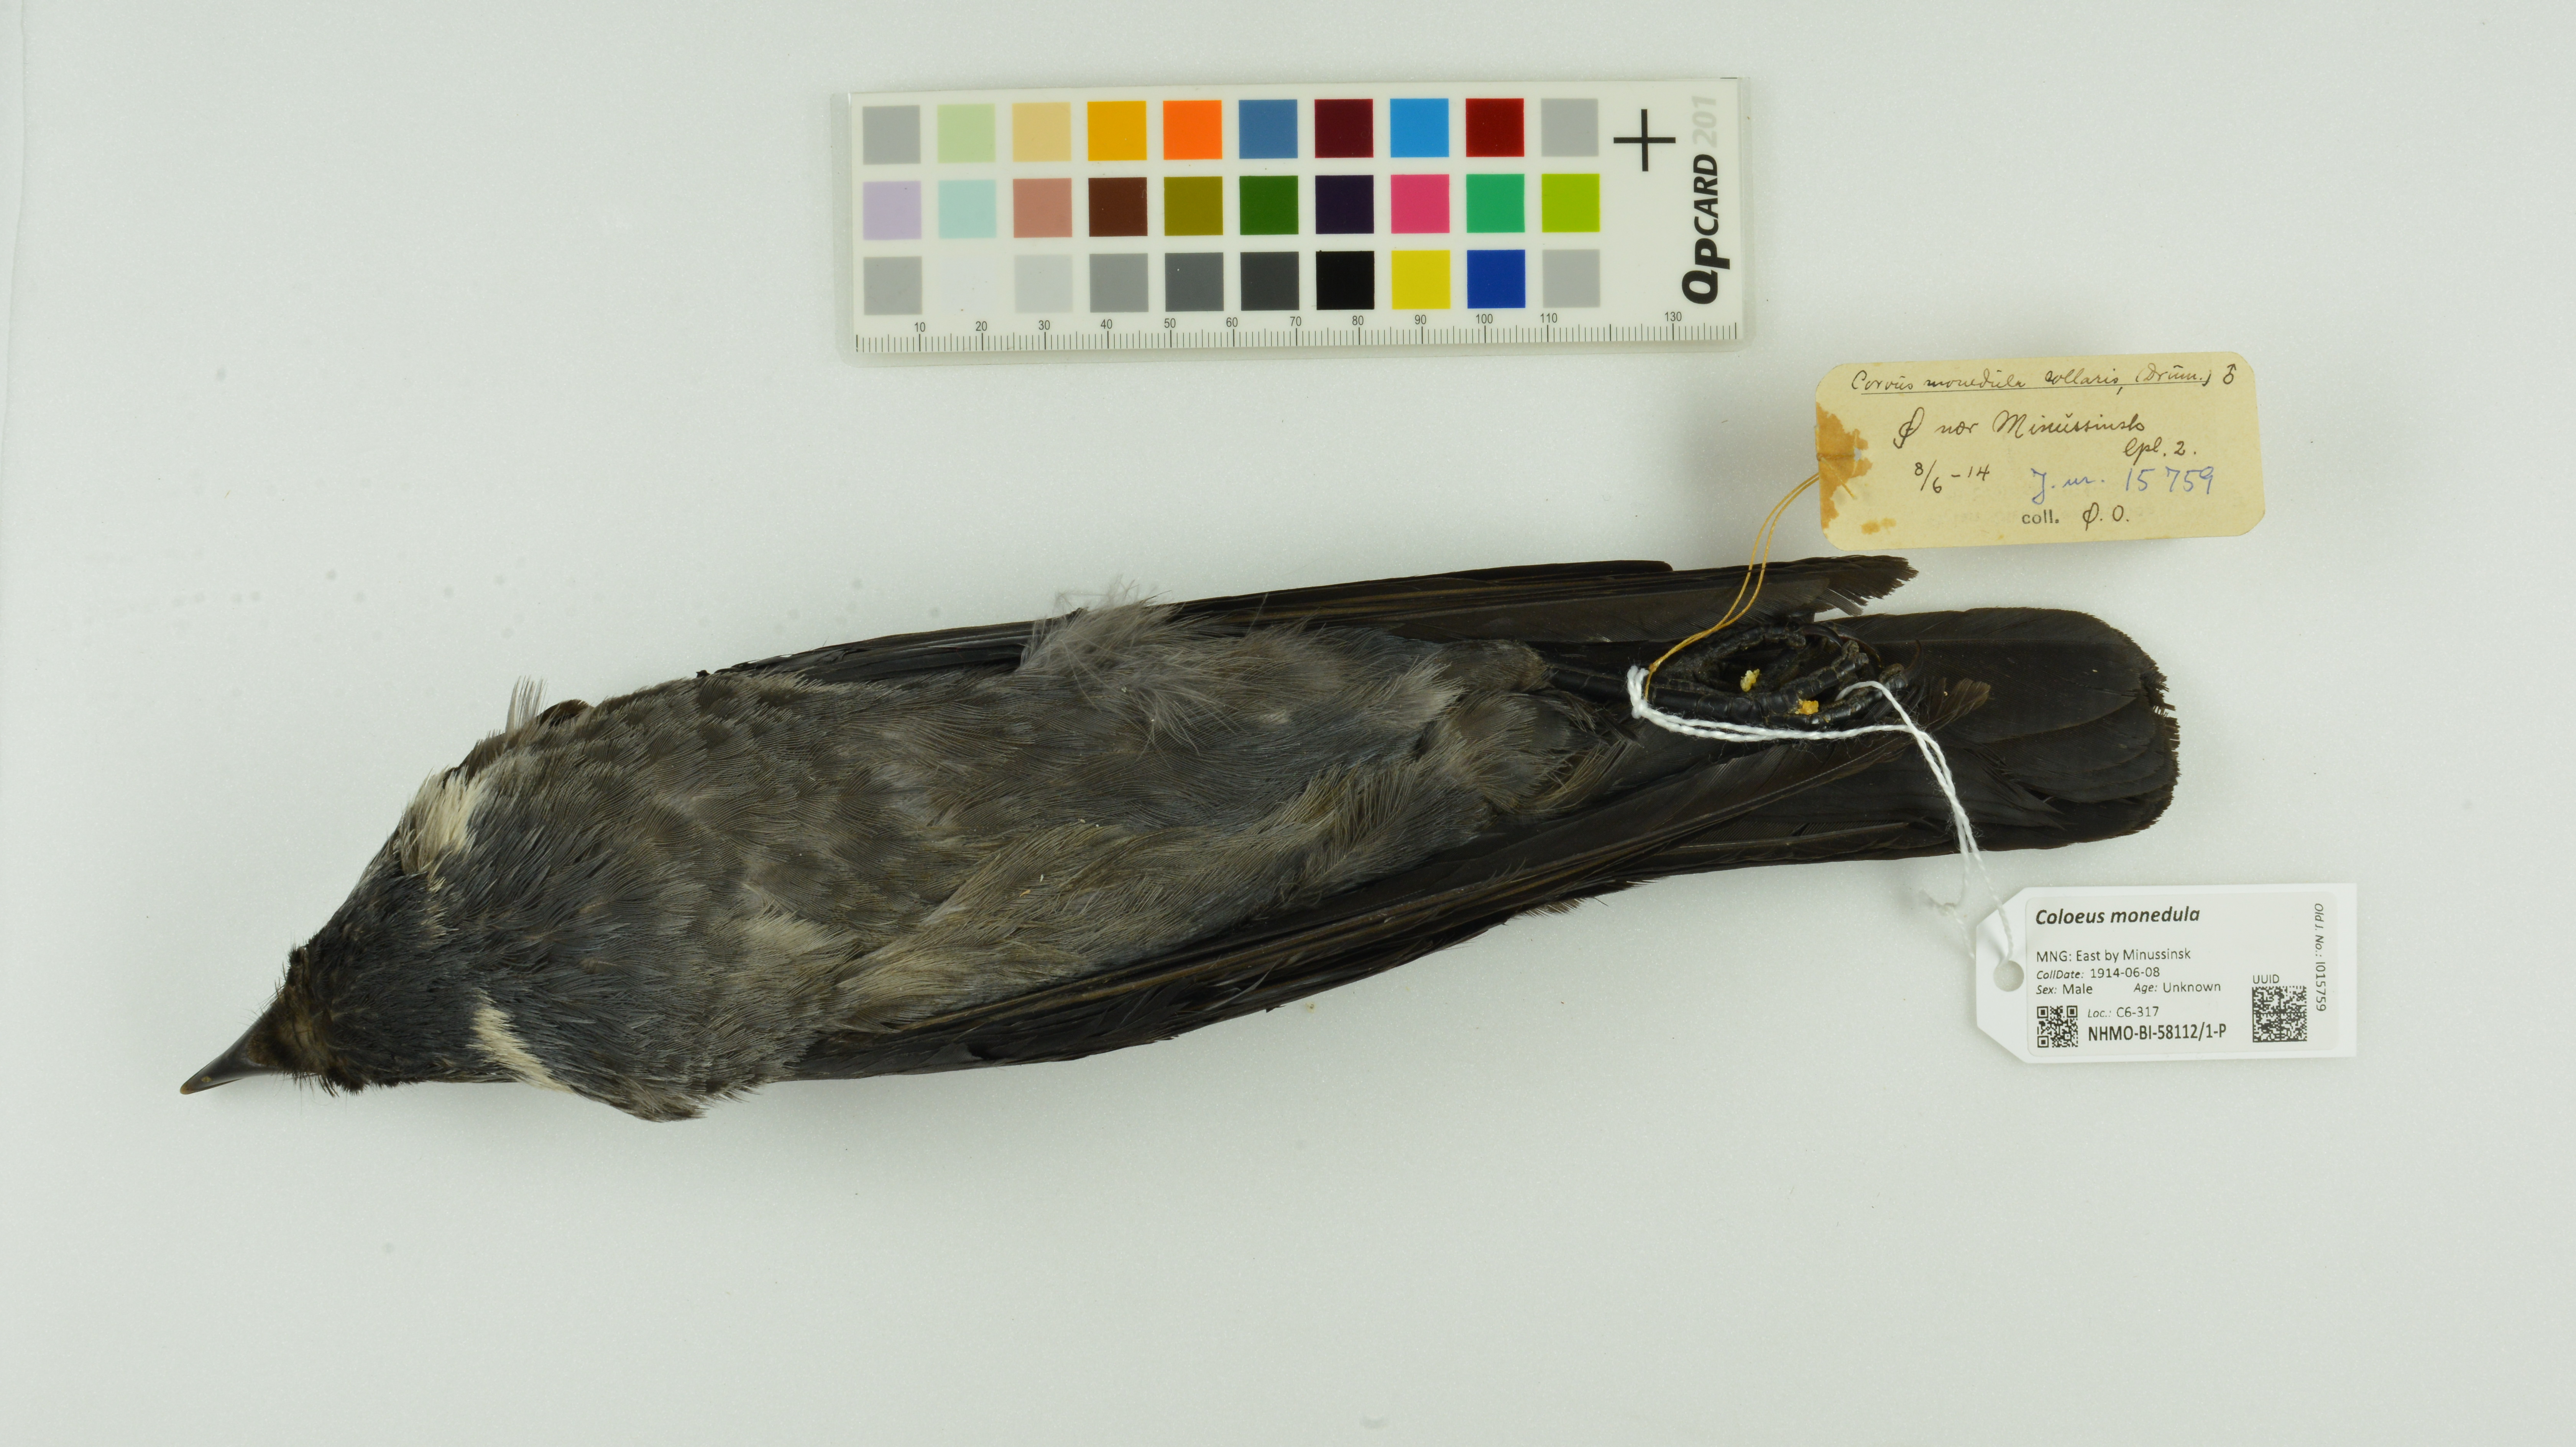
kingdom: Animalia
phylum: Chordata
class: Aves
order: Passeriformes
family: Corvidae
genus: Coloeus
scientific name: Coloeus monedula
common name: Western jackdaw
